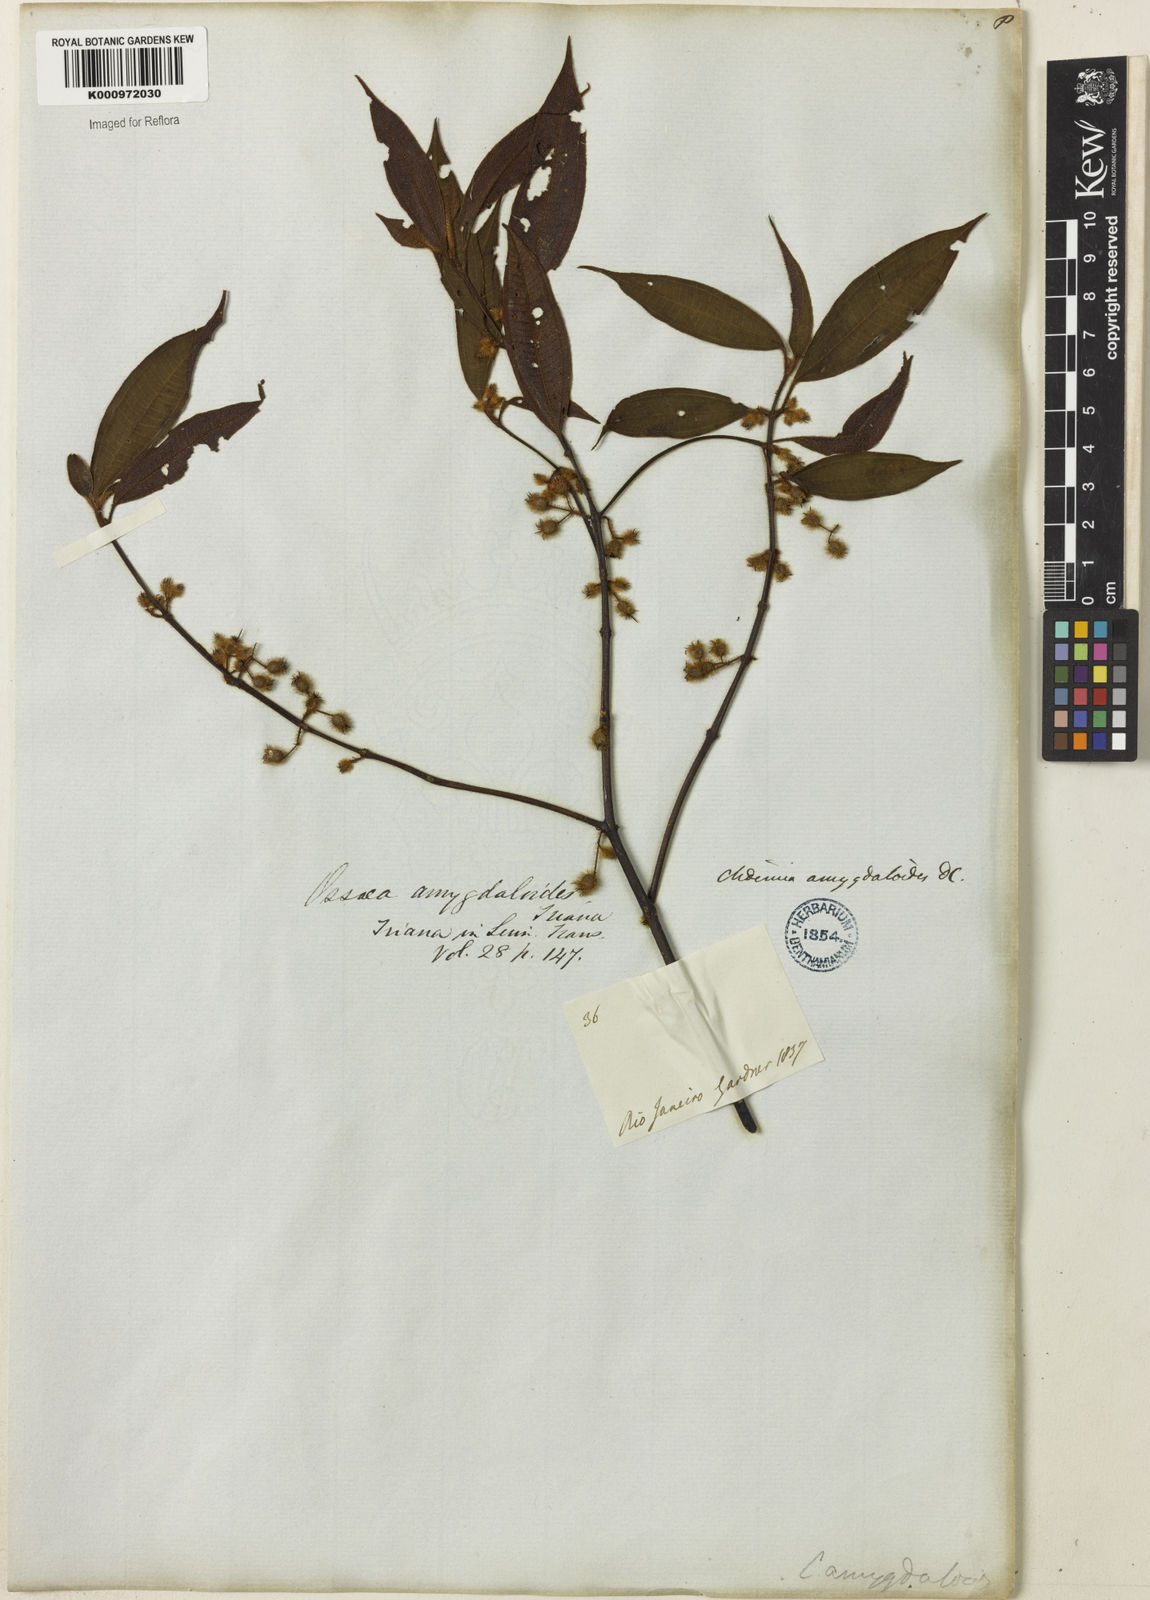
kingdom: Plantae
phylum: Tracheophyta
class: Magnoliopsida
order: Myrtales
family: Melastomataceae
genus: Miconia
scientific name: Miconia amygdaloides
